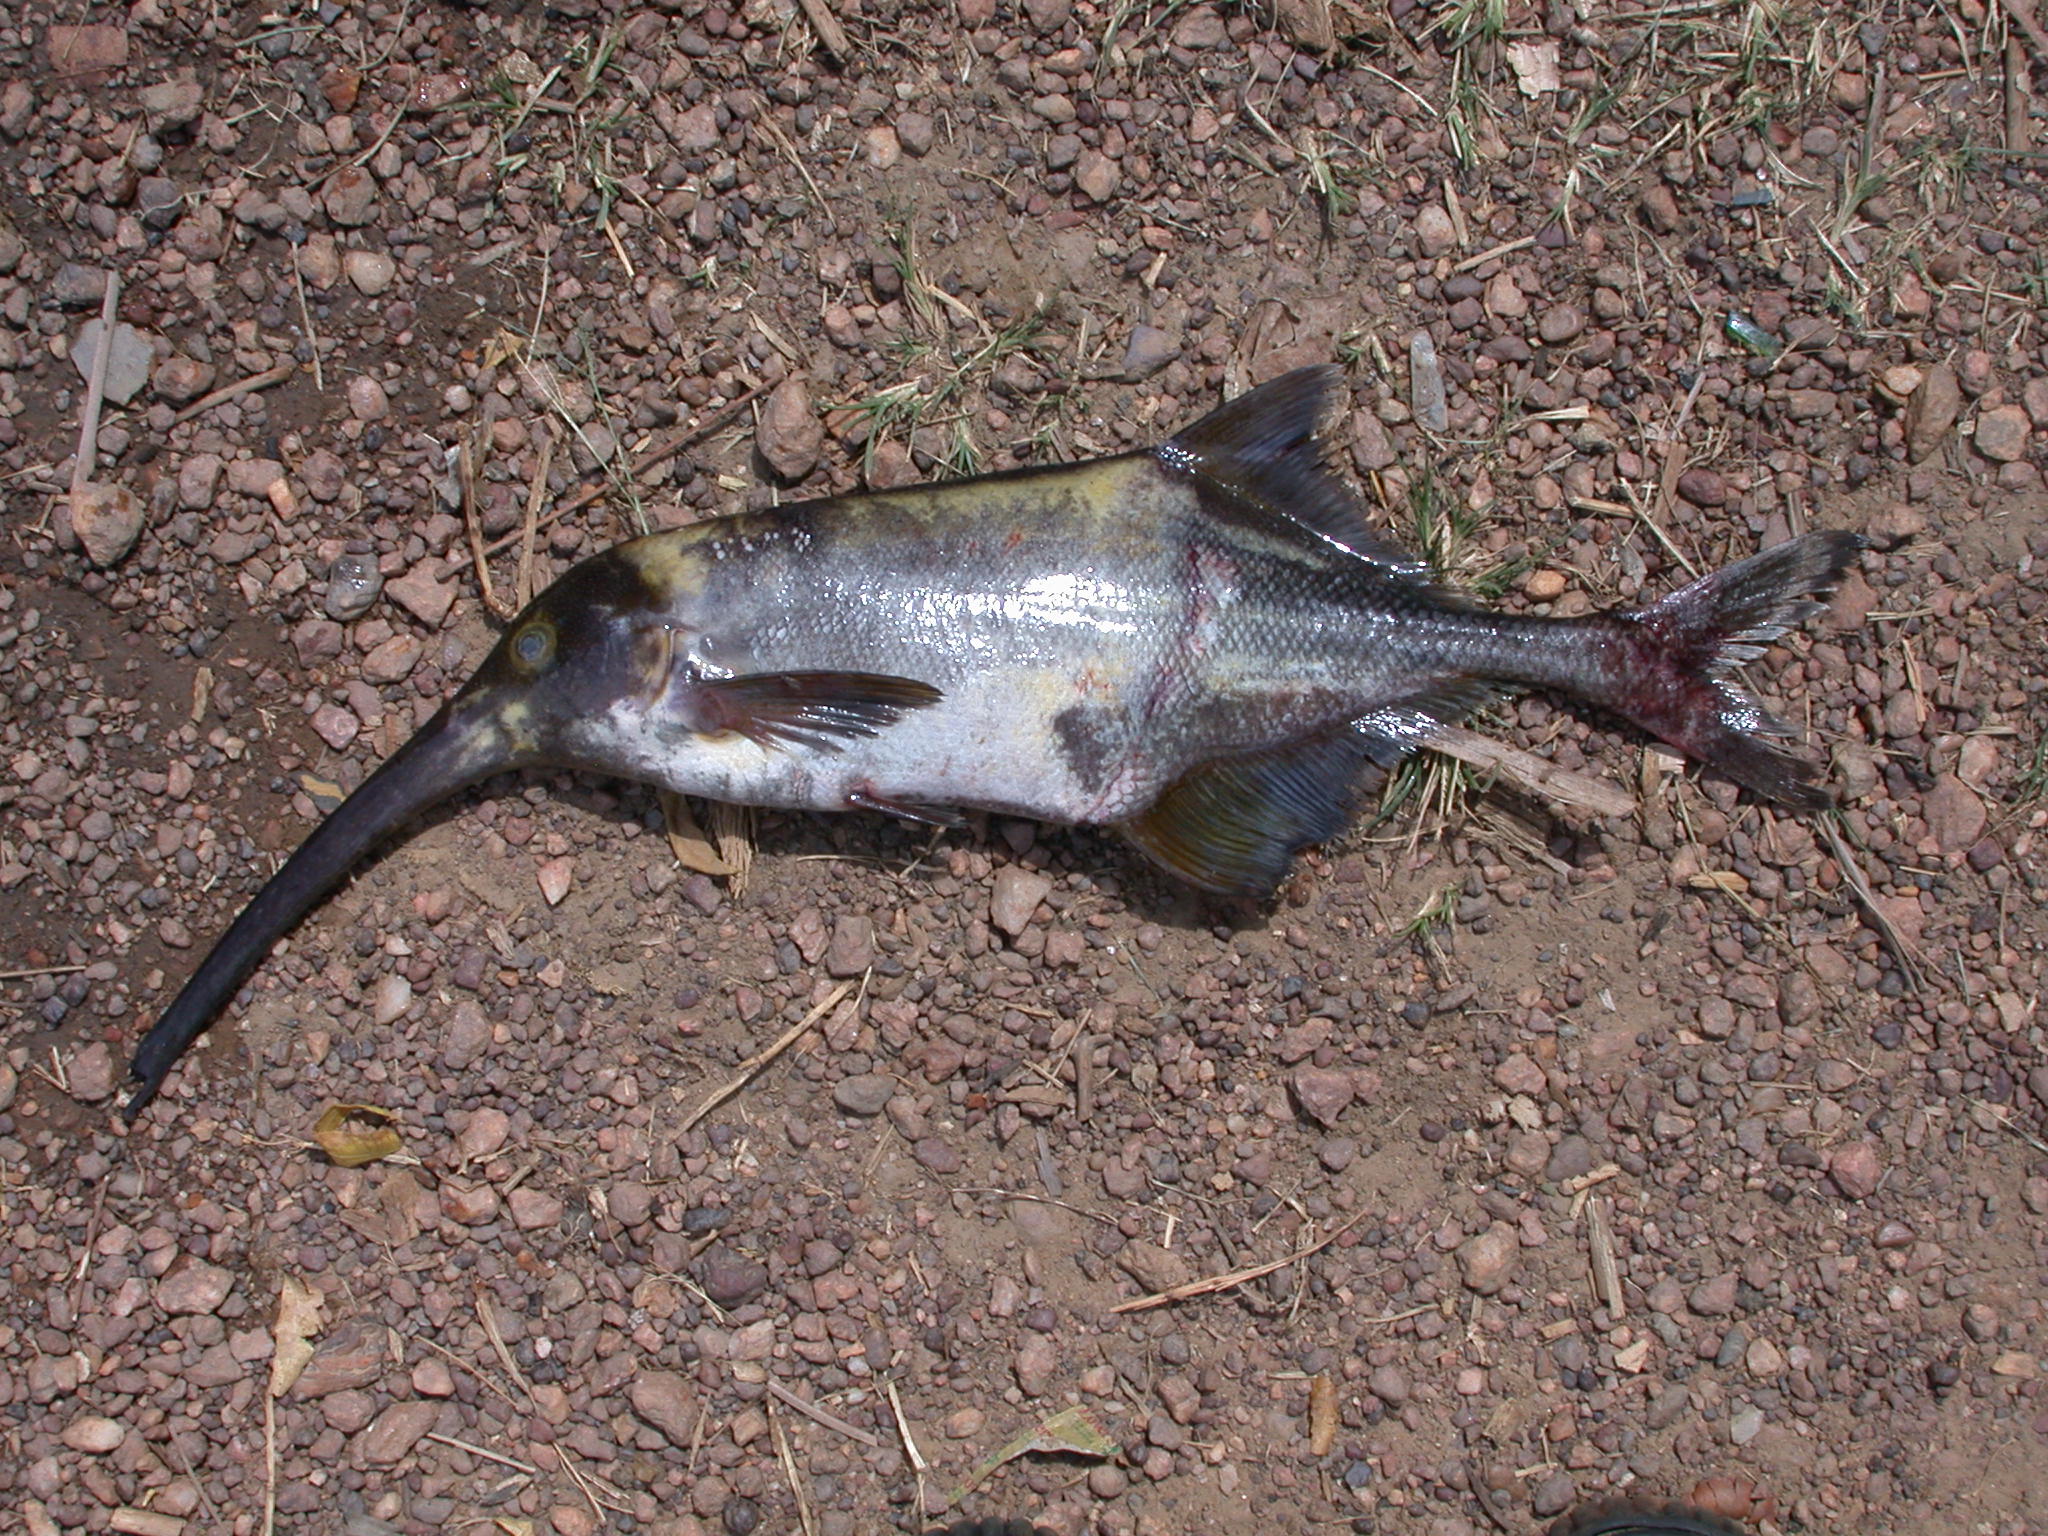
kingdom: Animalia
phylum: Chordata
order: Osteoglossiformes
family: Mormyridae
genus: Campylomormyrus
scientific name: Campylomormyrus curvirostris
